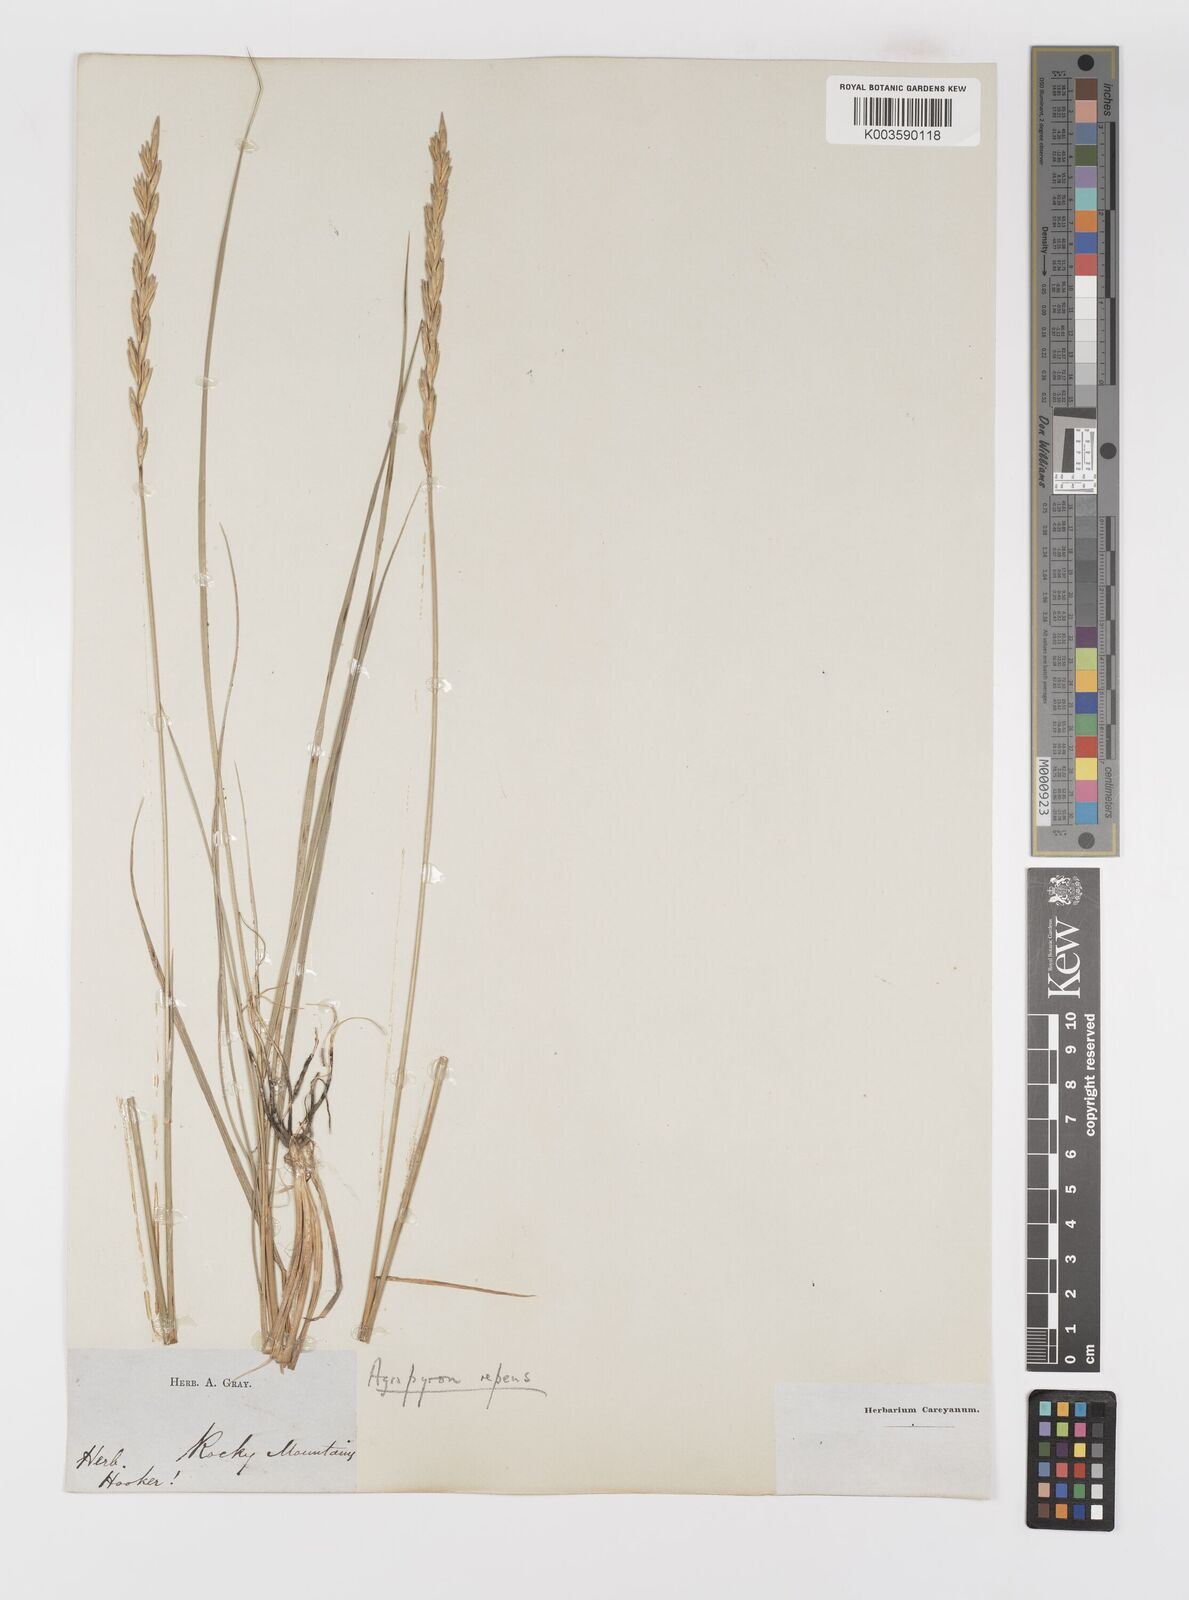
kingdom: Plantae
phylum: Tracheophyta
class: Liliopsida
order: Poales
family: Poaceae
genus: Elymus
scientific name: Elymus repens
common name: Quackgrass
